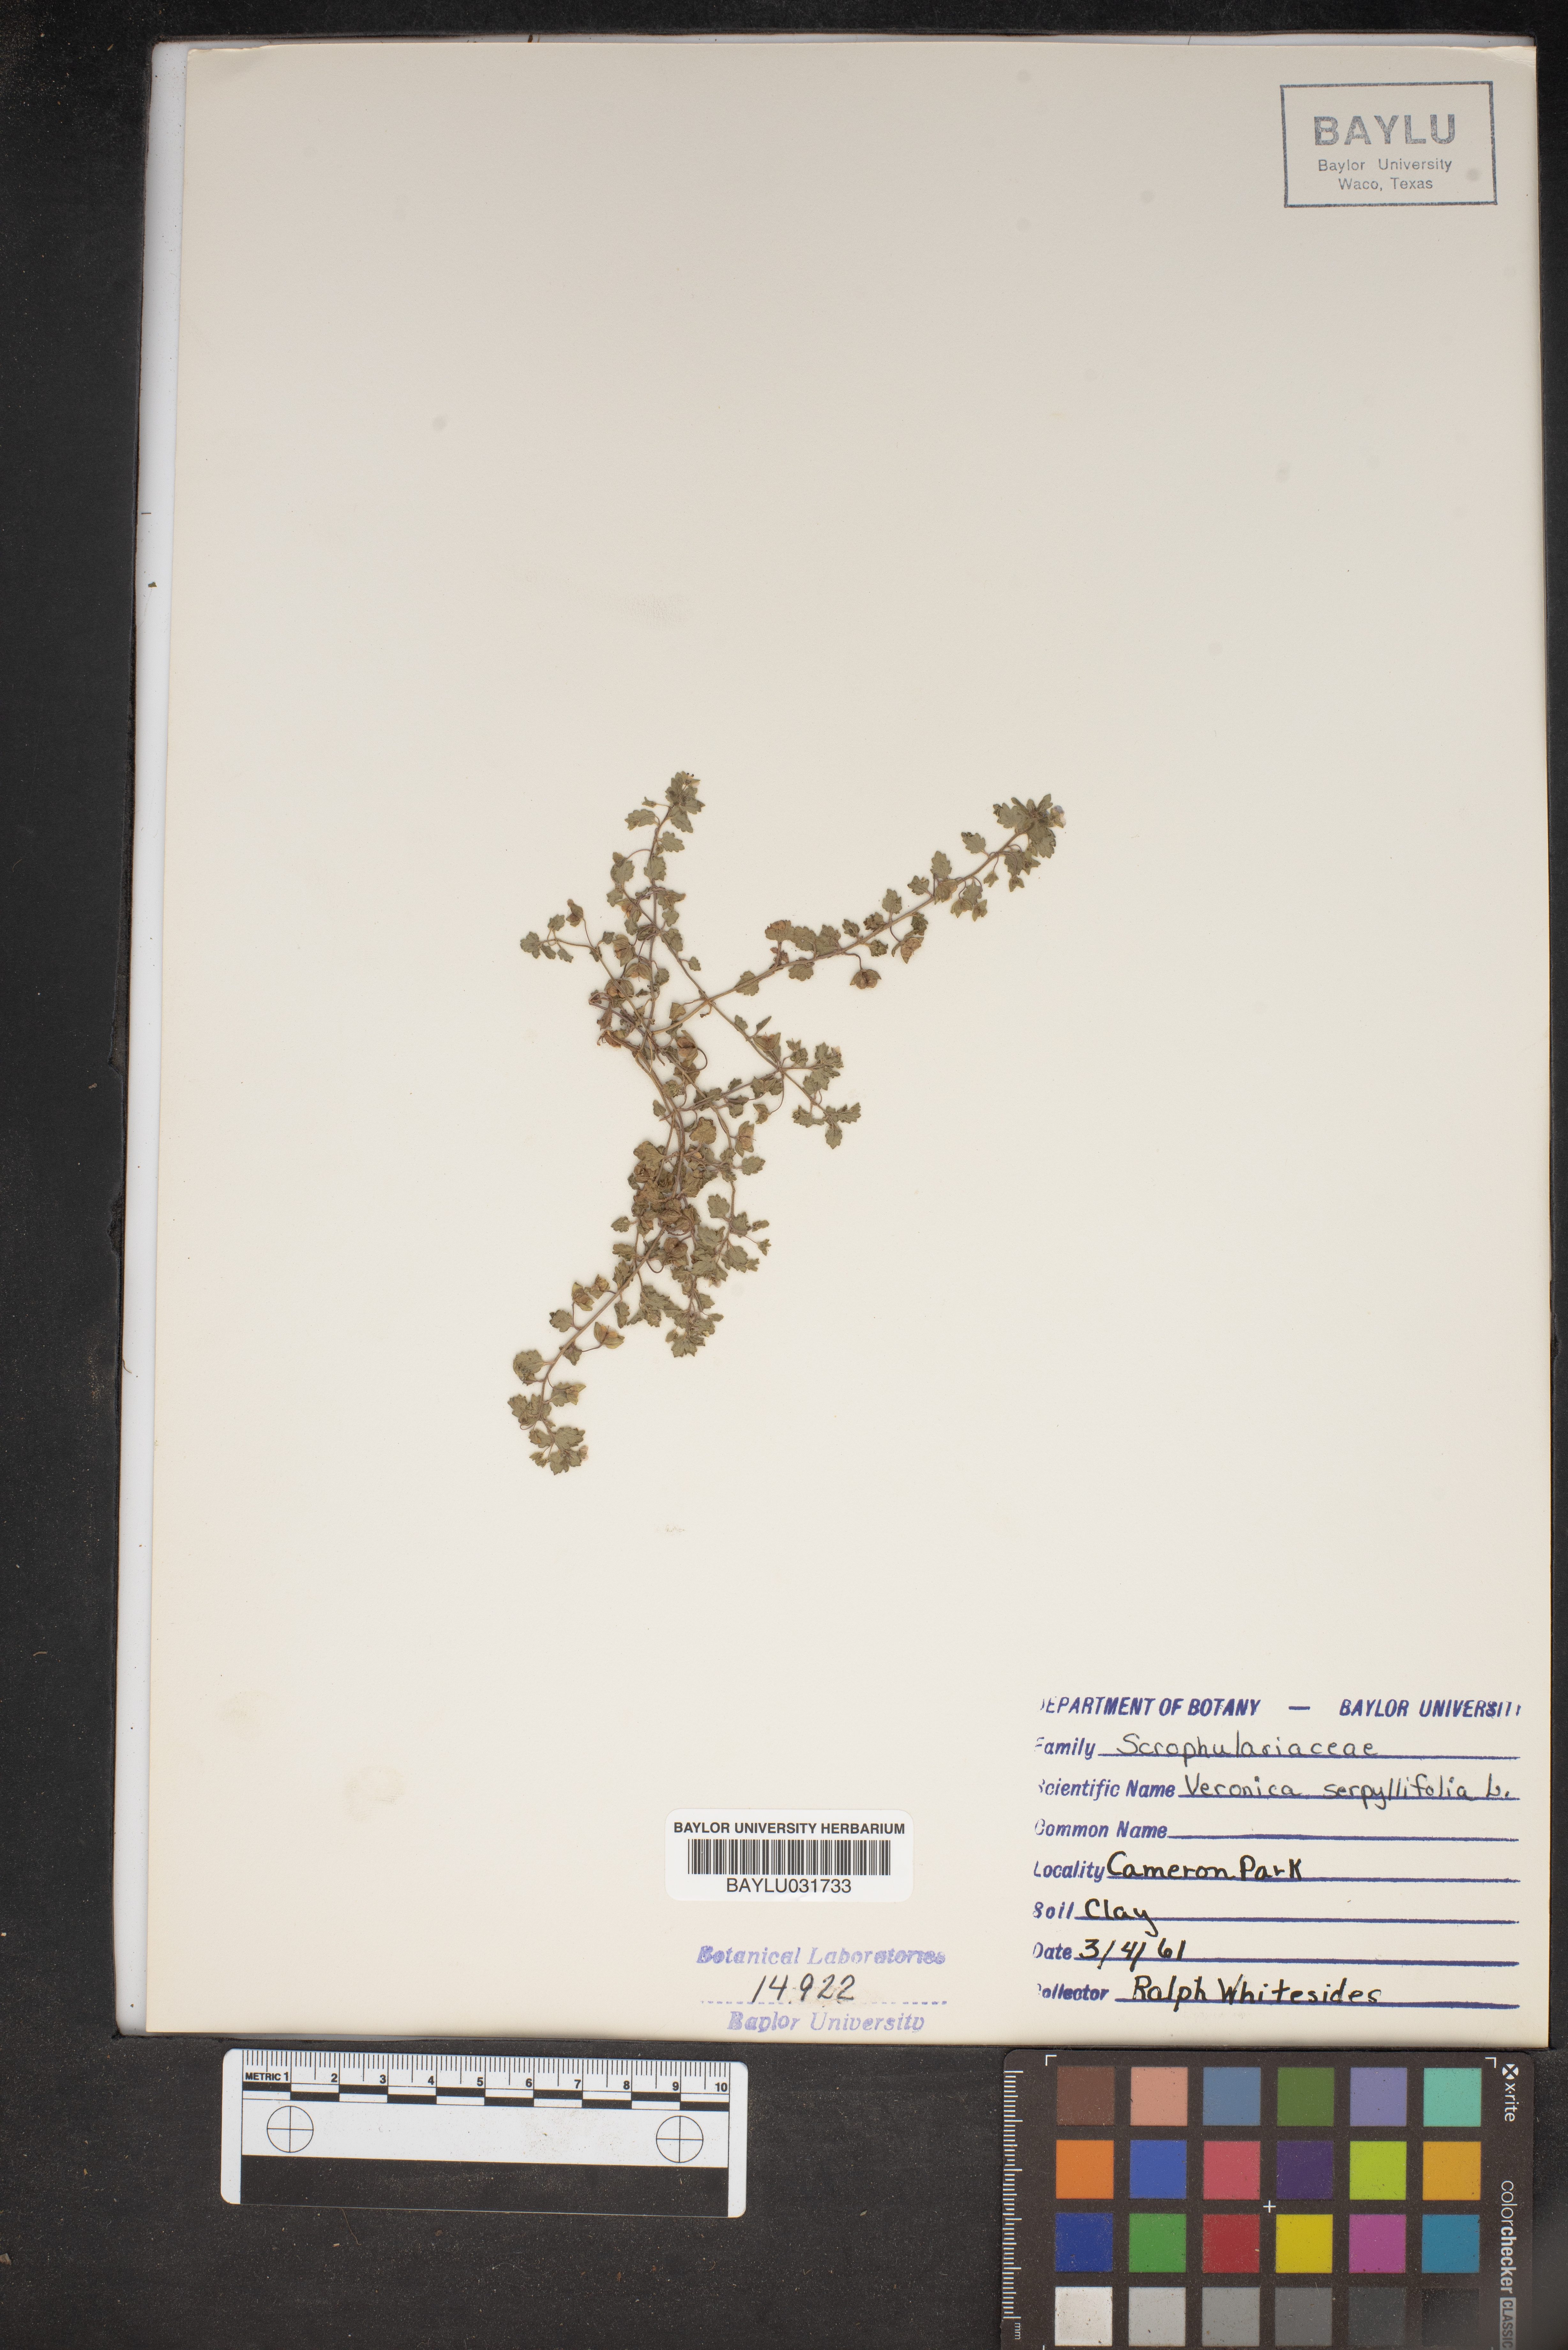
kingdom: Plantae
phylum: Tracheophyta
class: Magnoliopsida
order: Lamiales
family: Plantaginaceae
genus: Veronica
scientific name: Veronica serpyllifolia
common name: Thyme-leaved speedwell
